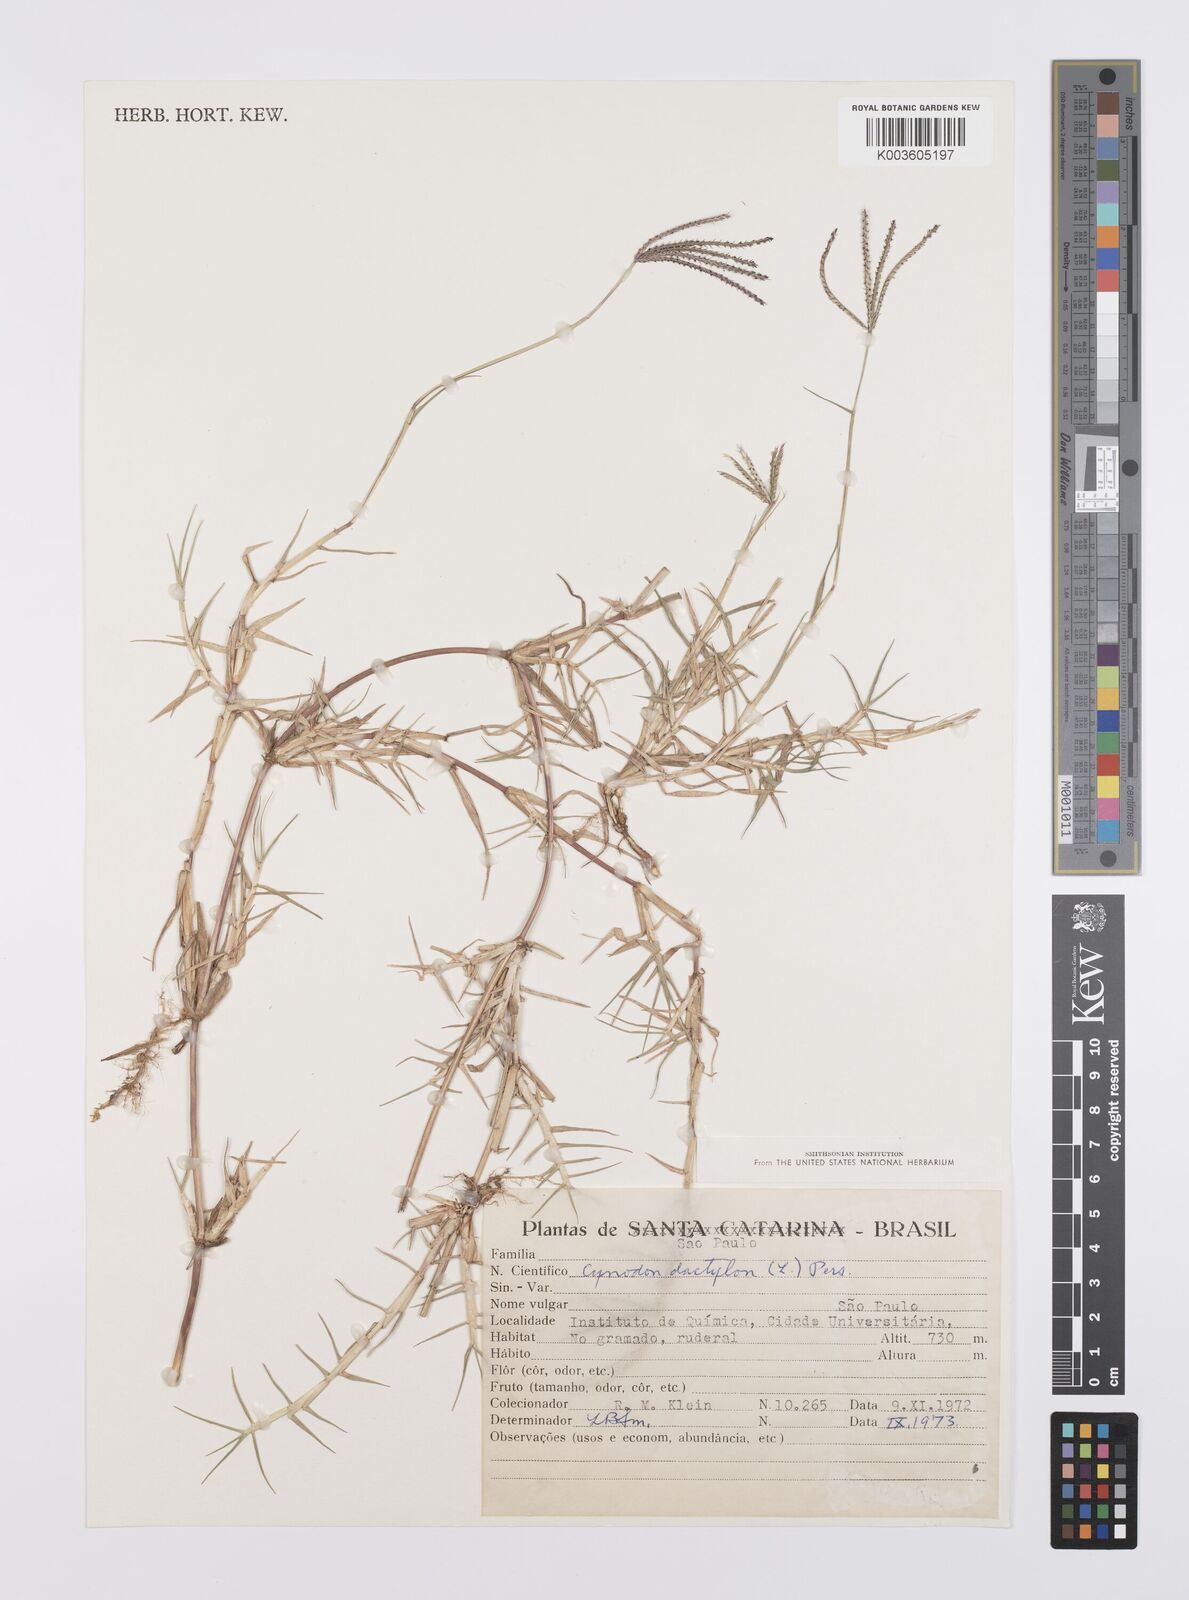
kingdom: Plantae
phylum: Tracheophyta
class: Liliopsida
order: Poales
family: Poaceae
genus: Cynodon
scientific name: Cynodon dactylon
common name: Bermuda grass
